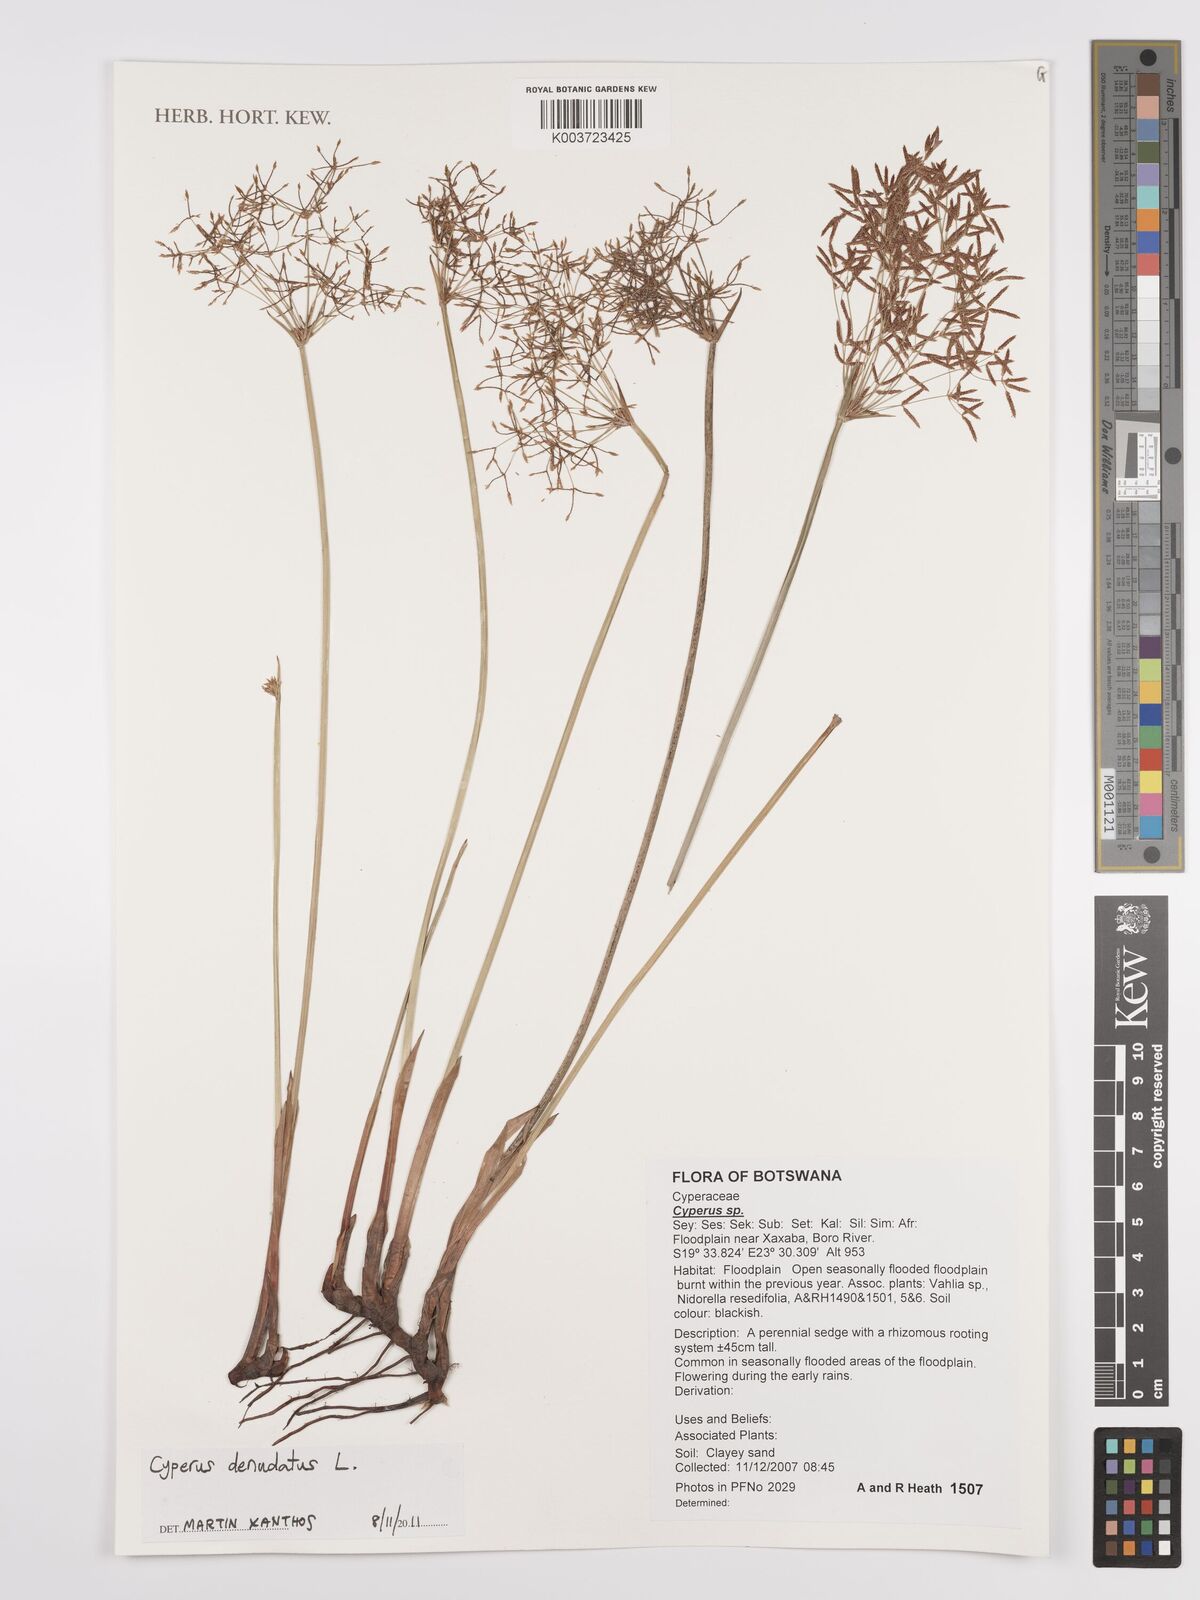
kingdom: Plantae
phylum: Tracheophyta
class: Liliopsida
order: Poales
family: Cyperaceae
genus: Cyperus
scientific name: Cyperus denudatus
